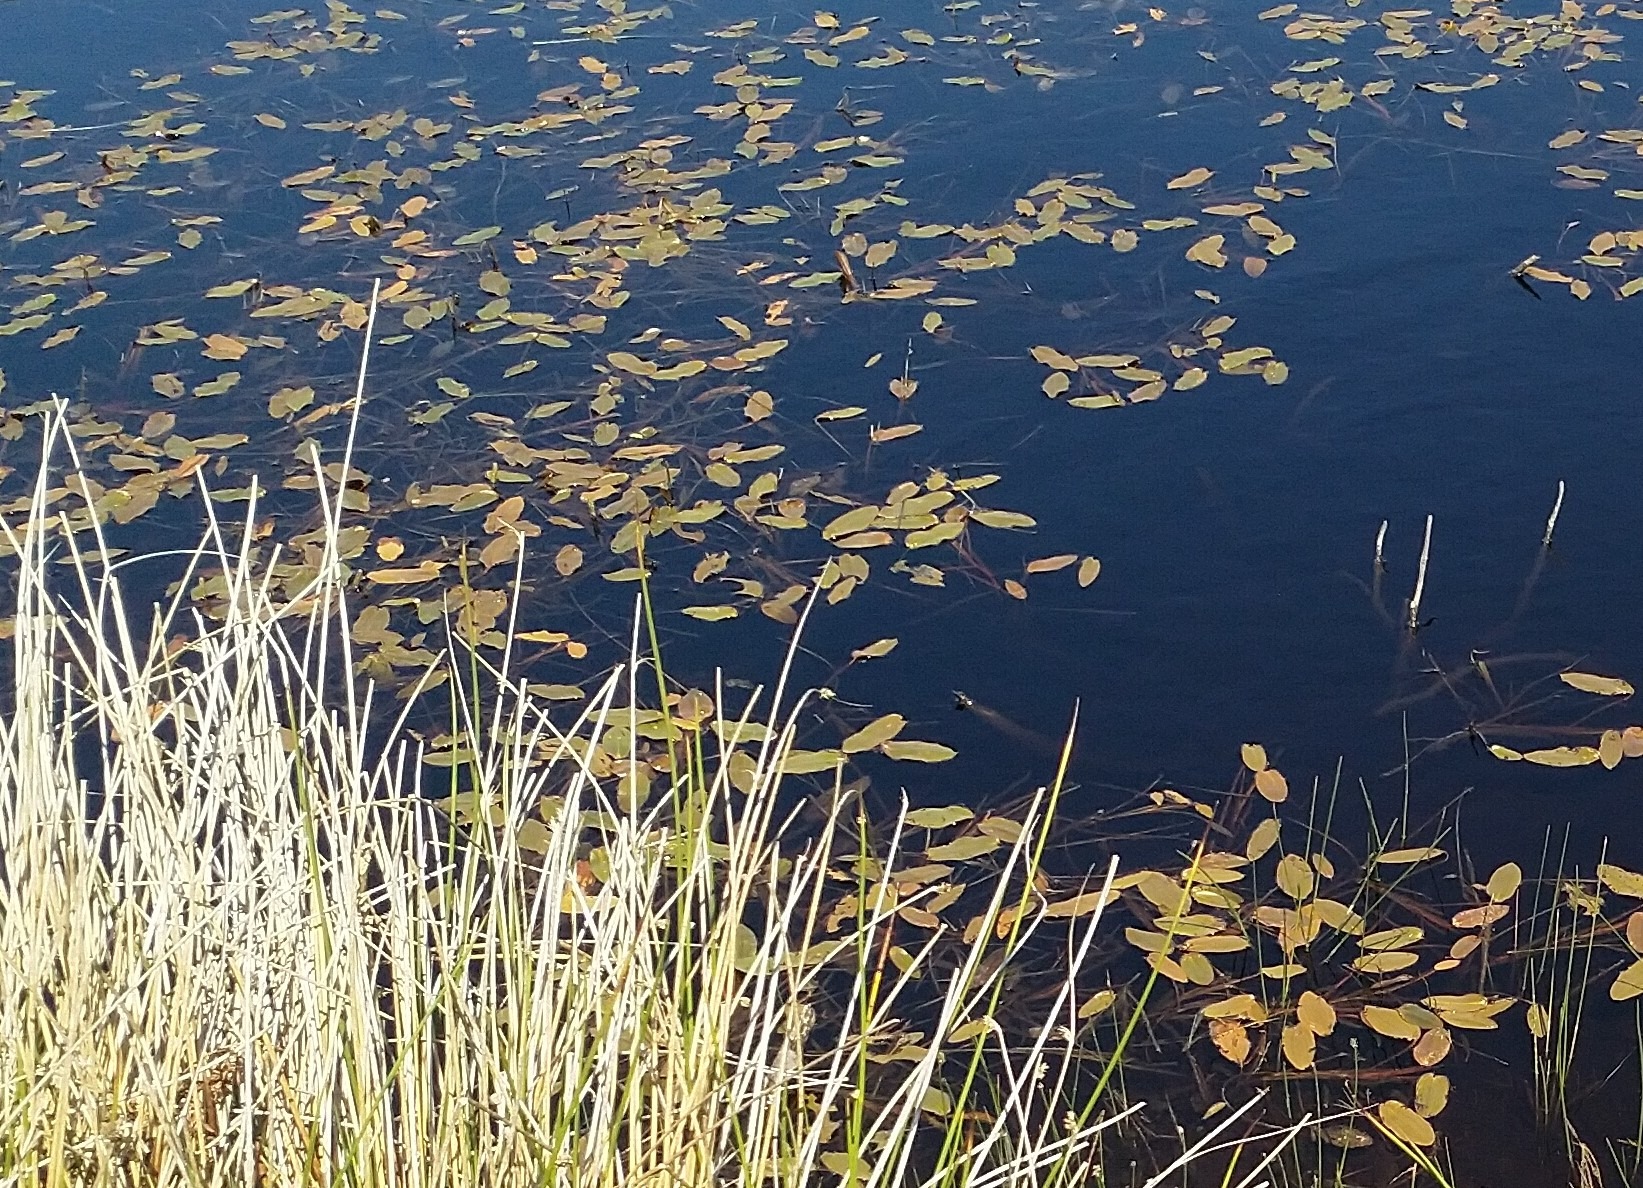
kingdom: Plantae
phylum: Tracheophyta
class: Liliopsida
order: Alismatales
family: Potamogetonaceae
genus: Potamogeton
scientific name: Potamogeton natans
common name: Svømmende vandaks
